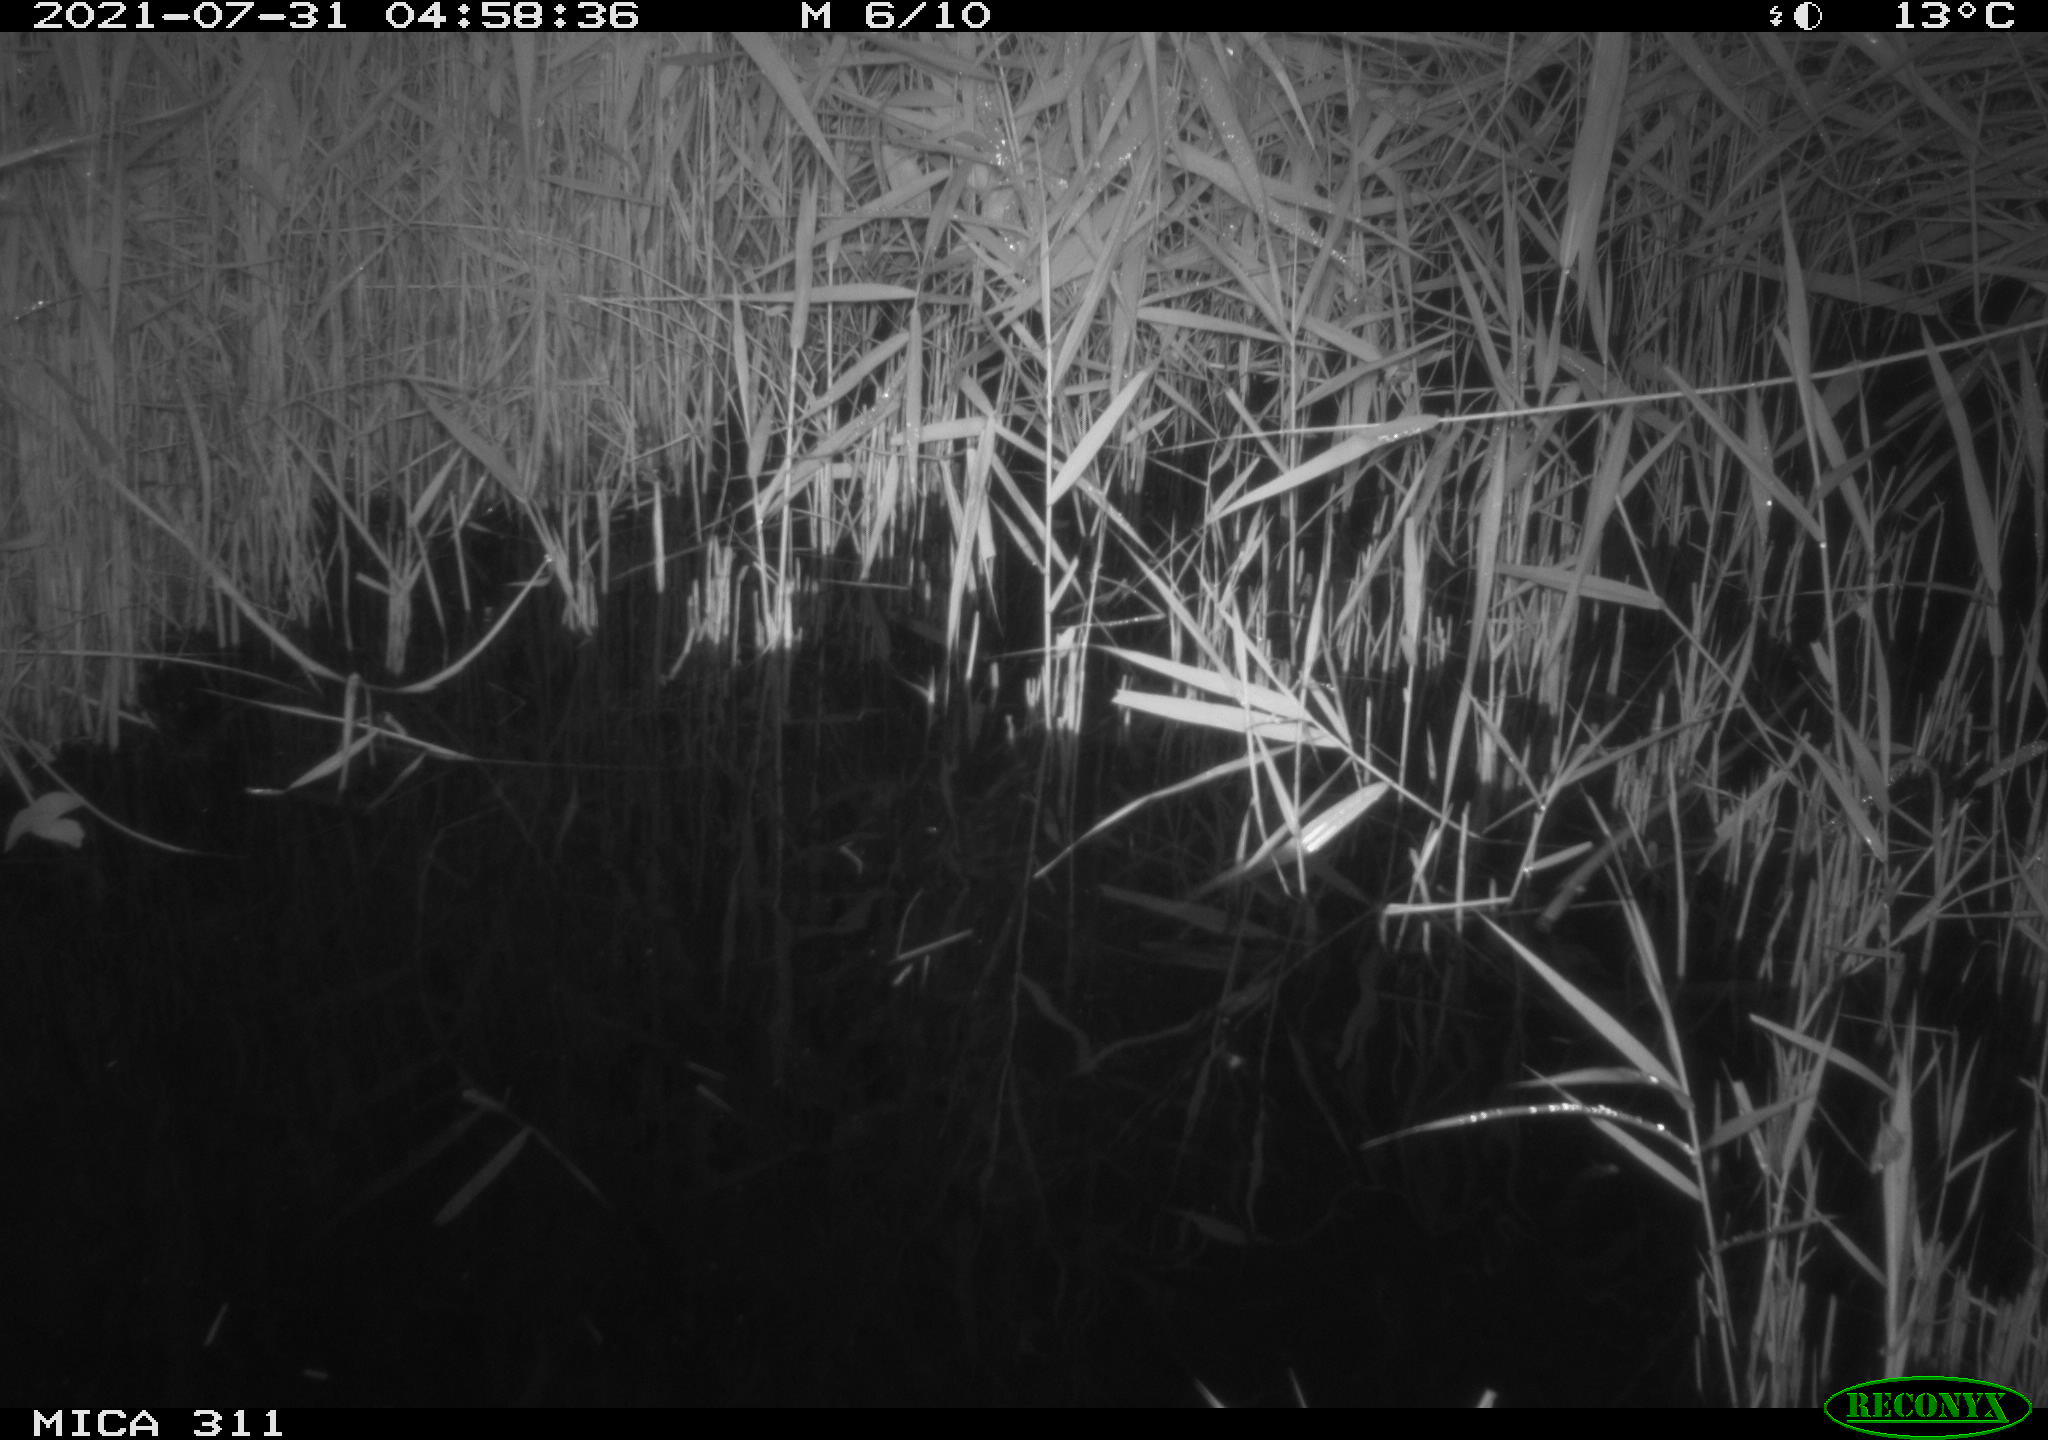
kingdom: Animalia
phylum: Chordata
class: Mammalia
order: Rodentia
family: Muridae
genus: Rattus
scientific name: Rattus norvegicus
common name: Brown rat
